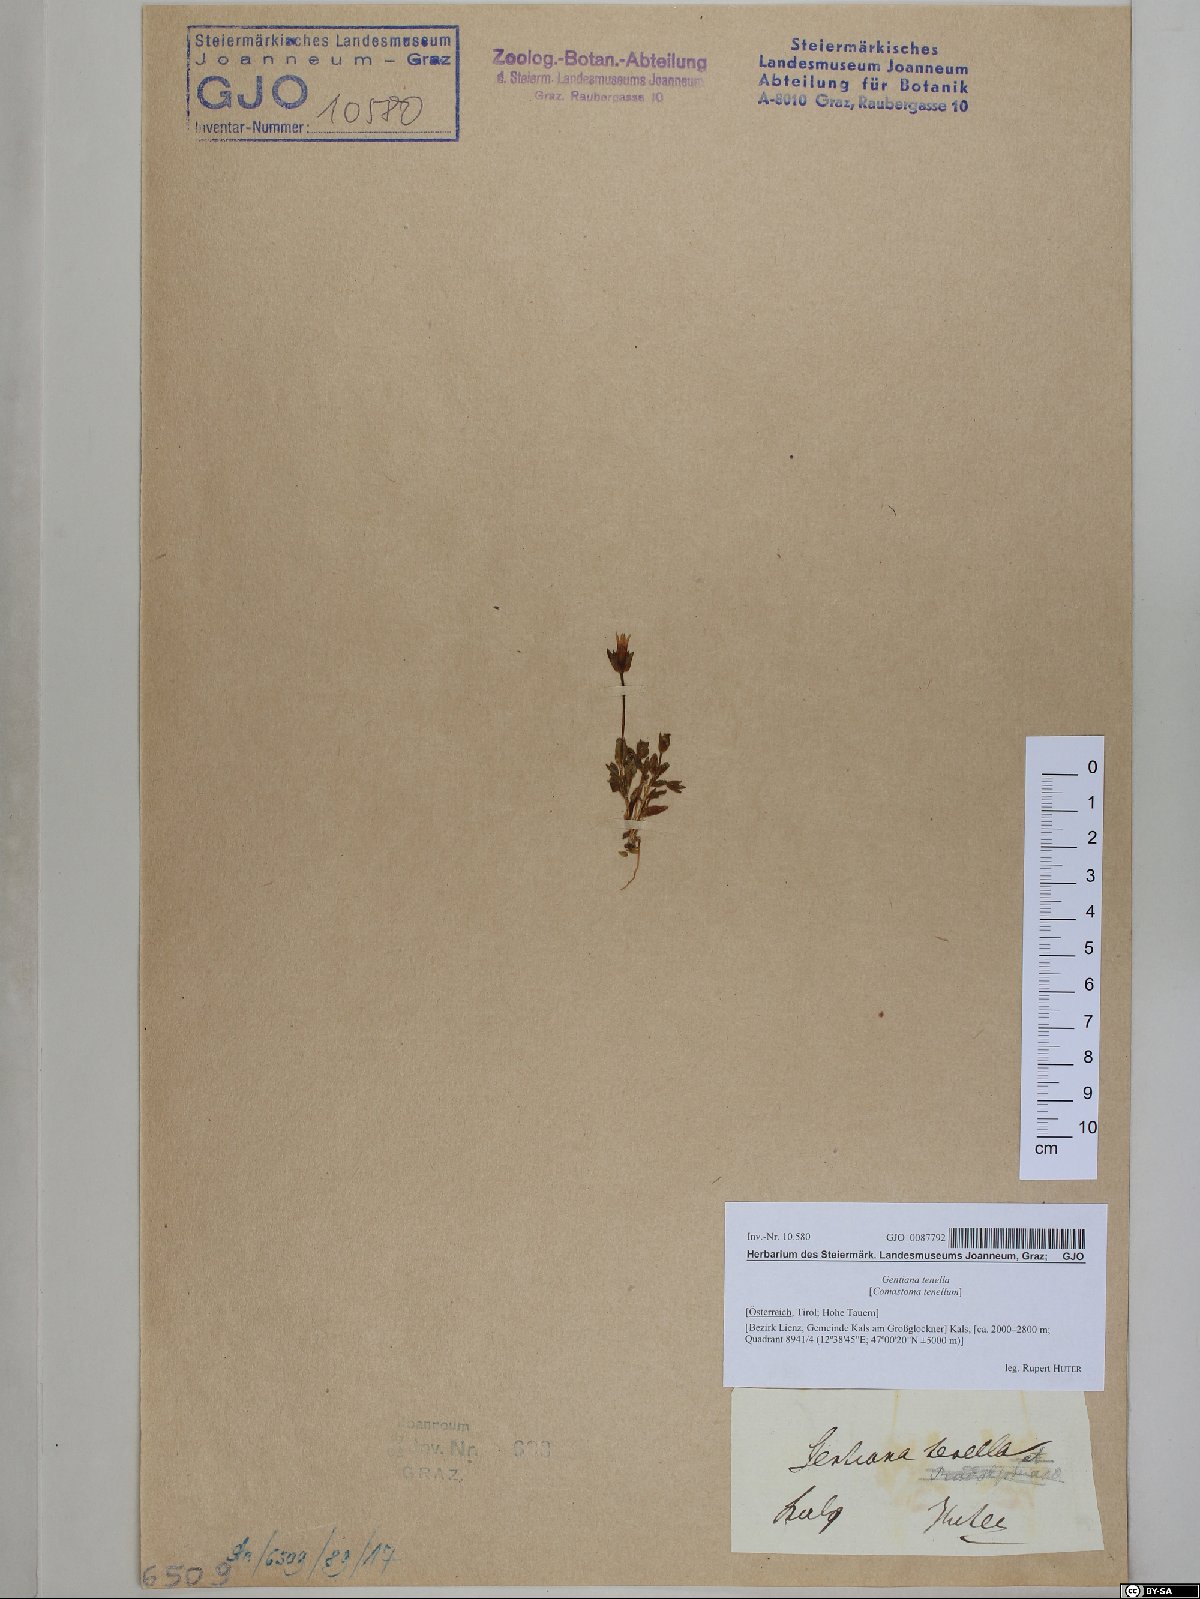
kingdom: Plantae
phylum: Tracheophyta
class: Magnoliopsida
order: Gentianales
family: Gentianaceae
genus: Comastoma
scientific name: Comastoma tenellum
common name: Dane's dwarf gentian
